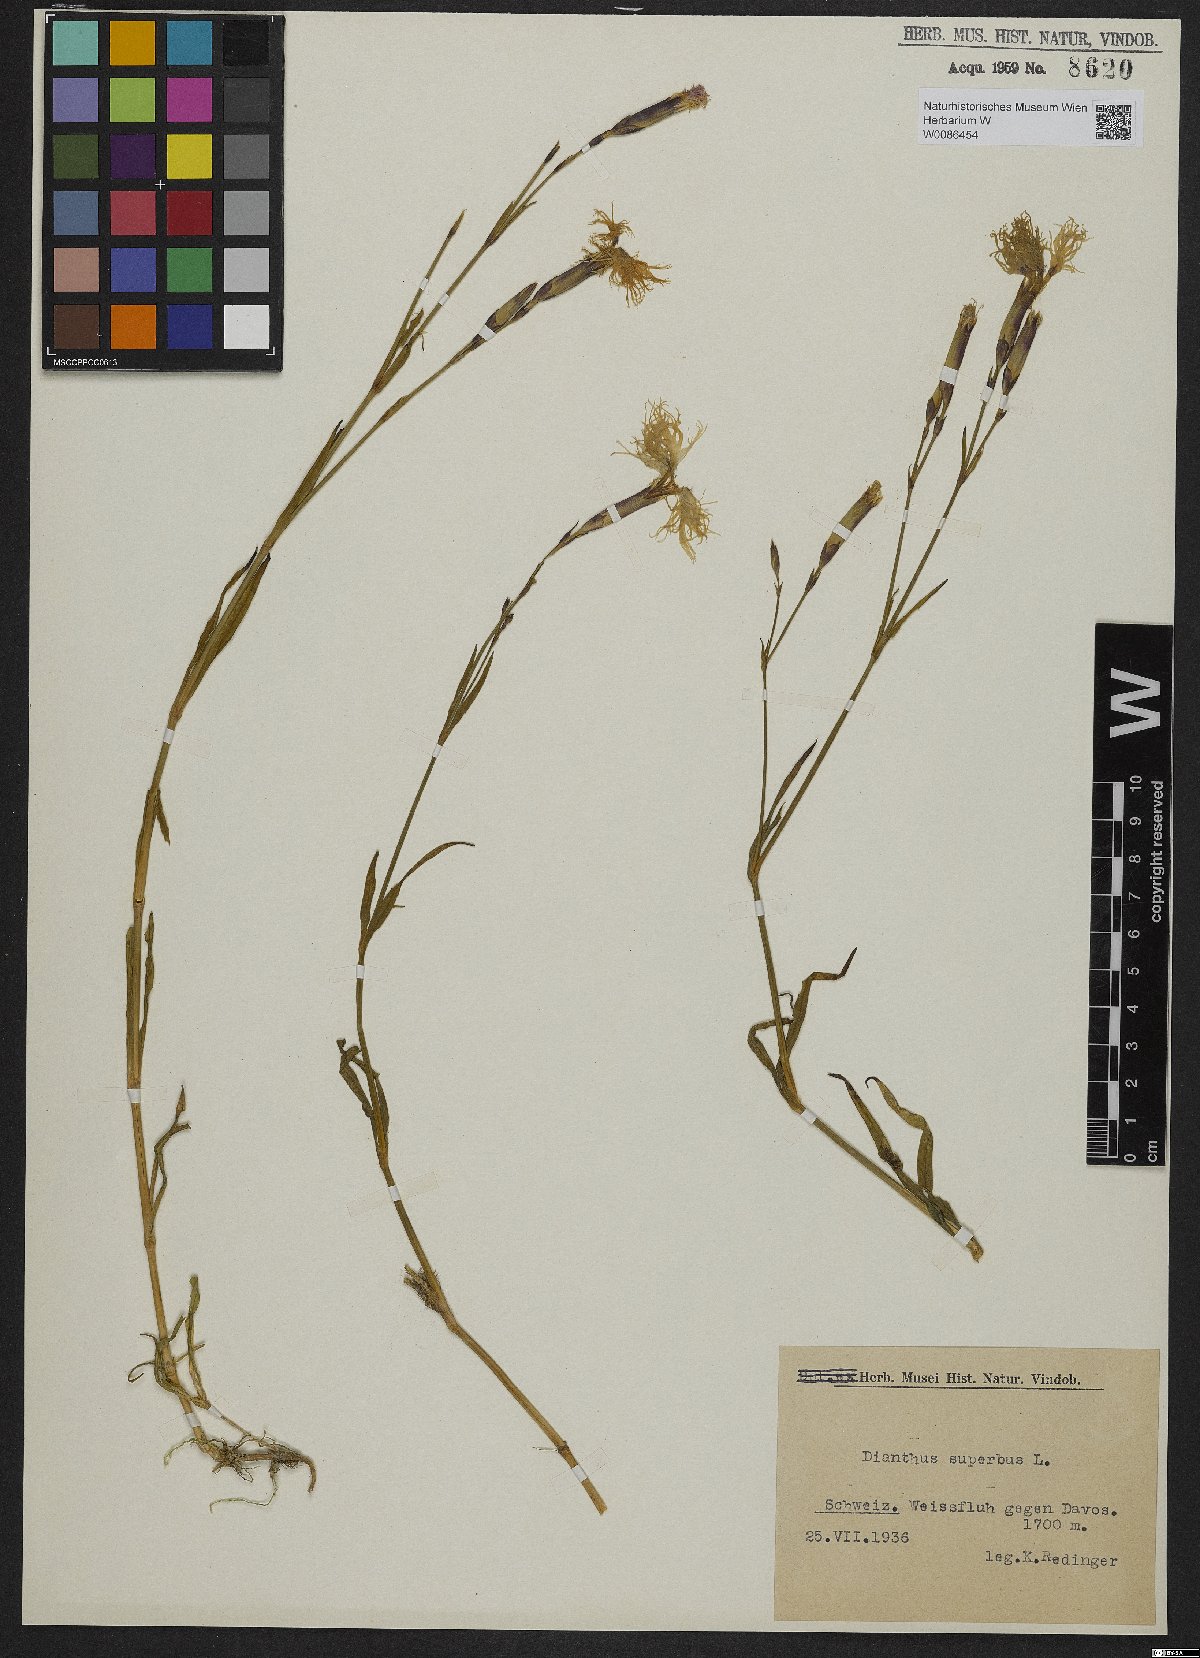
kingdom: Plantae
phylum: Tracheophyta
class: Magnoliopsida
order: Caryophyllales
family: Caryophyllaceae
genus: Dianthus
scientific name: Dianthus superbus
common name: Fringed pink
